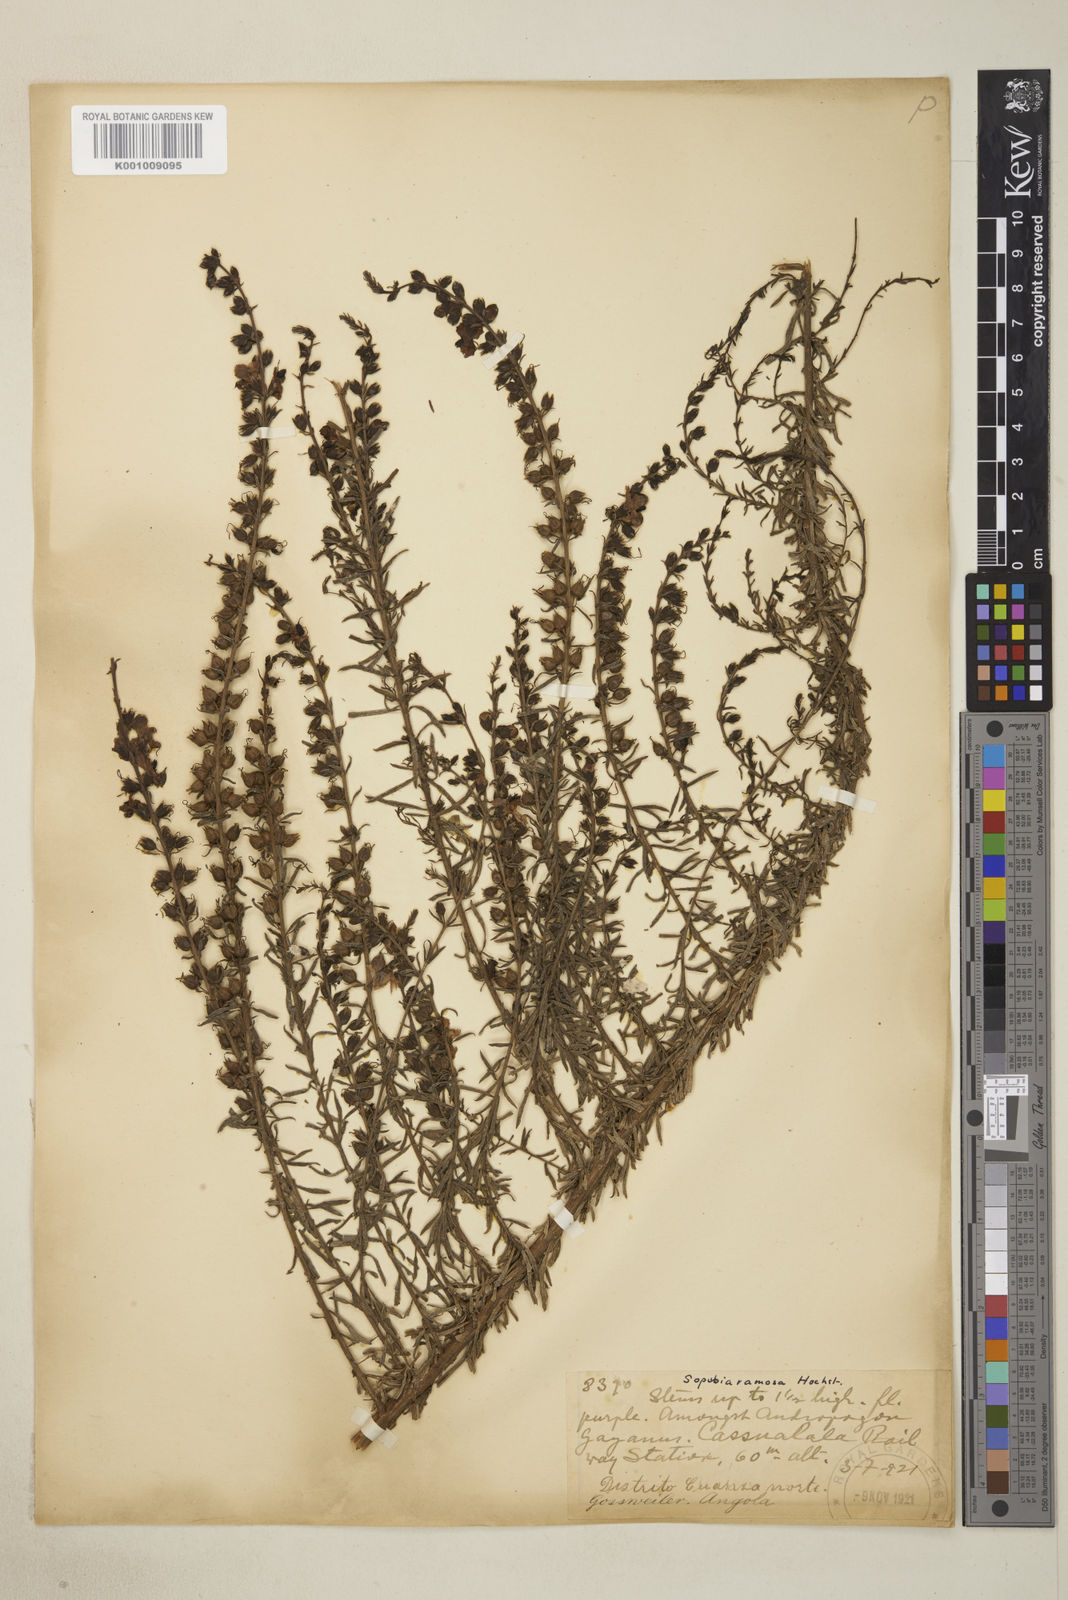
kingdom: Plantae
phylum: Tracheophyta
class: Magnoliopsida
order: Lamiales
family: Orobanchaceae
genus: Sopubia
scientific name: Sopubia ramosa
